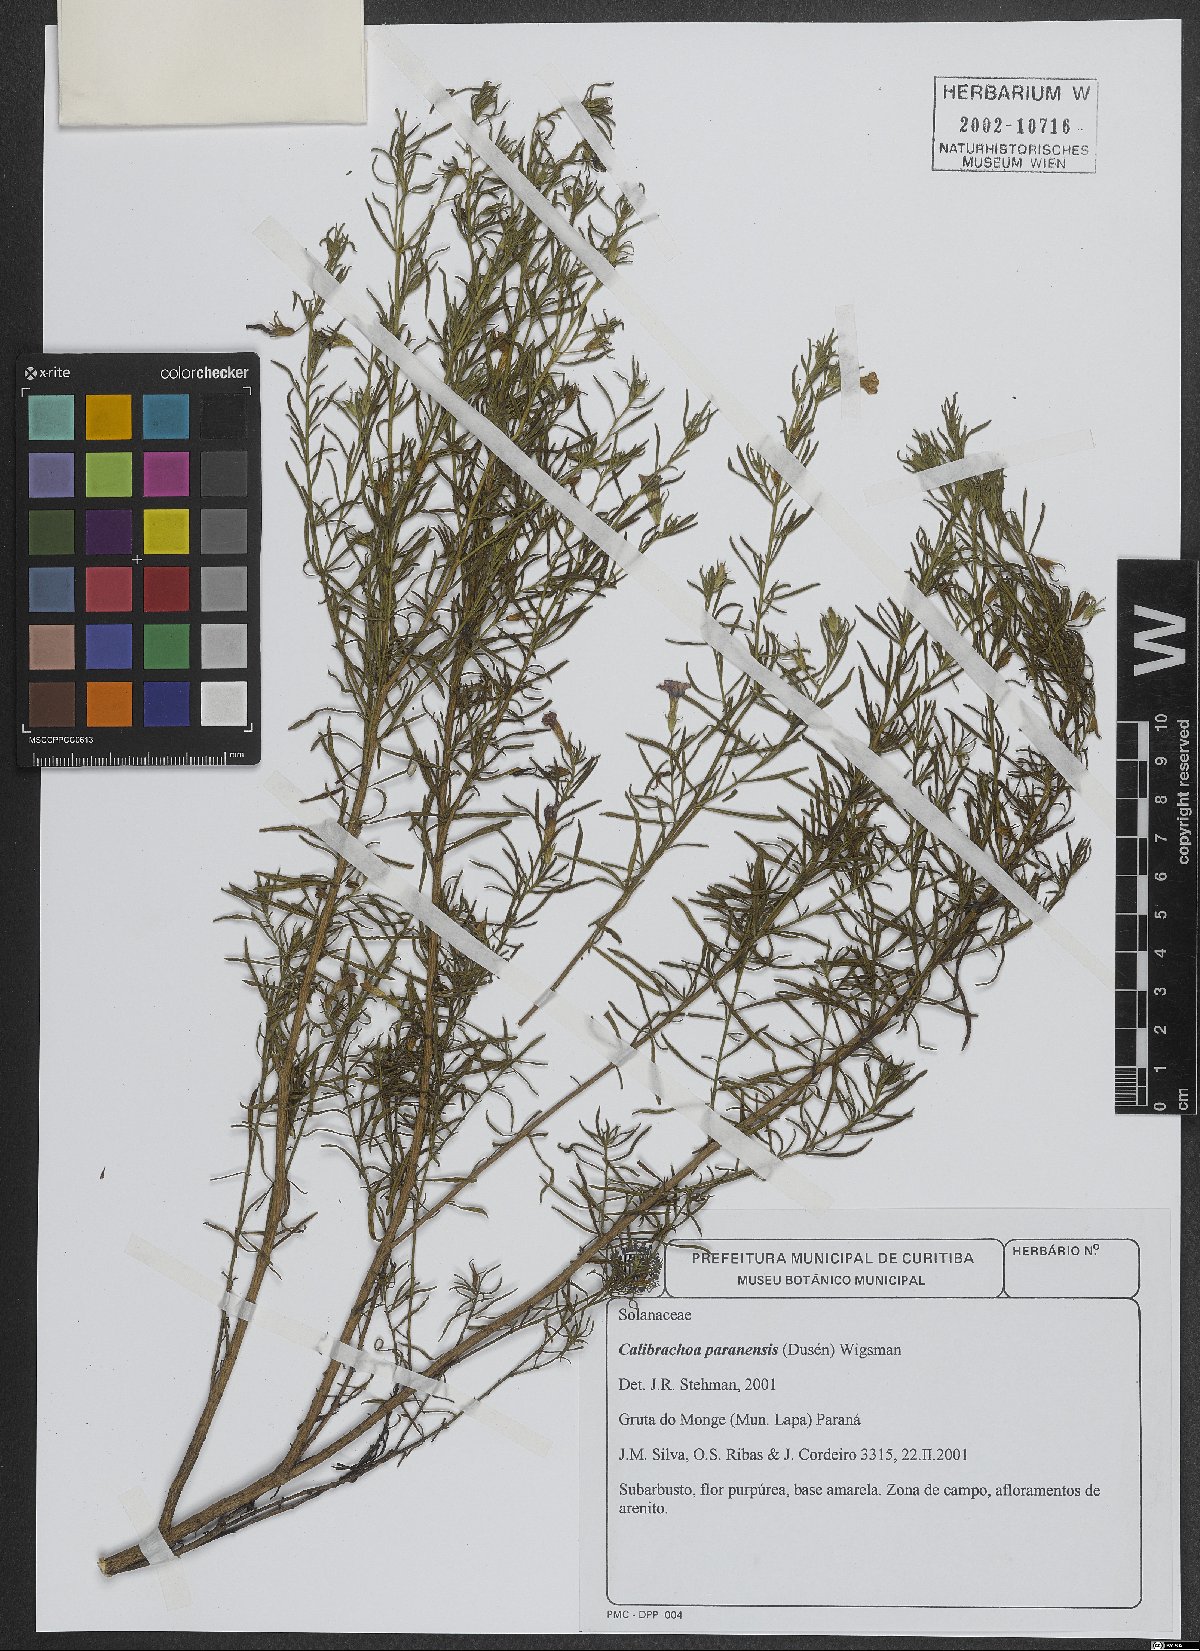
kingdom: Plantae
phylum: Tracheophyta
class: Magnoliopsida
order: Solanales
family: Solanaceae
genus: Calibrachoa
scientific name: Calibrachoa paranensis
